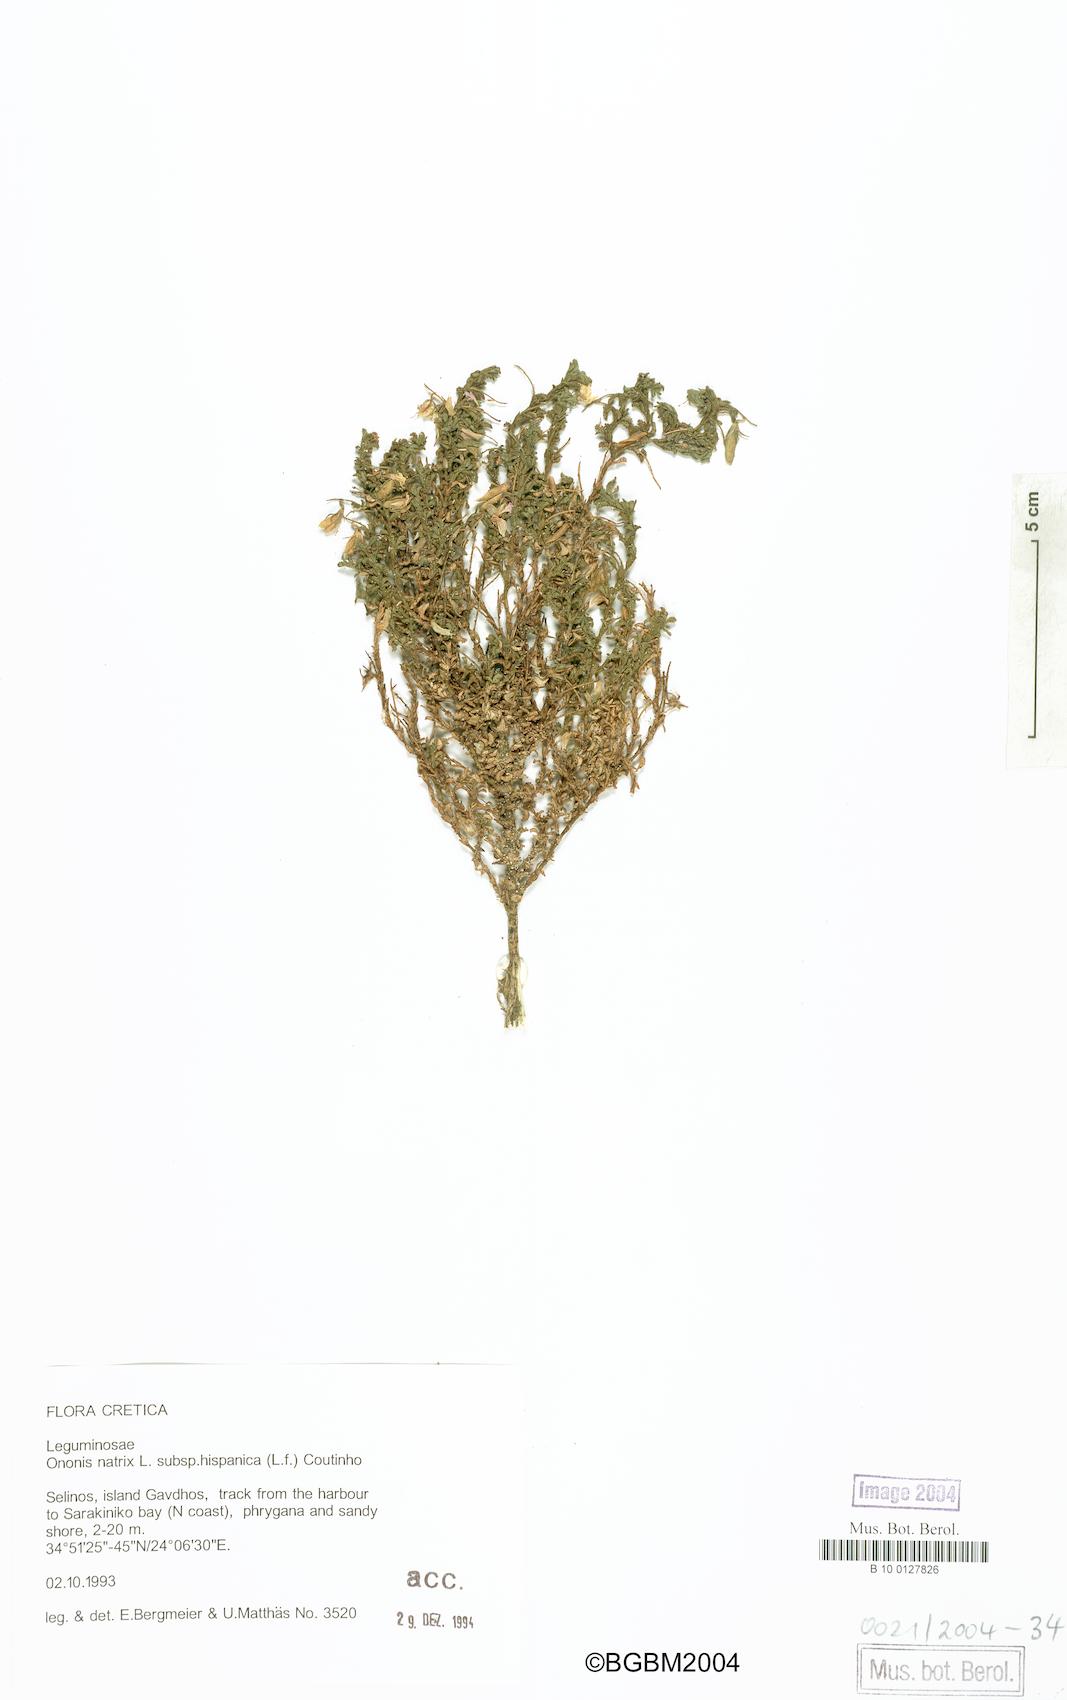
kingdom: Plantae
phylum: Tracheophyta
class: Magnoliopsida
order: Fabales
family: Fabaceae
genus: Ononis
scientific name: Ononis natrix
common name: Yellow restharrow
